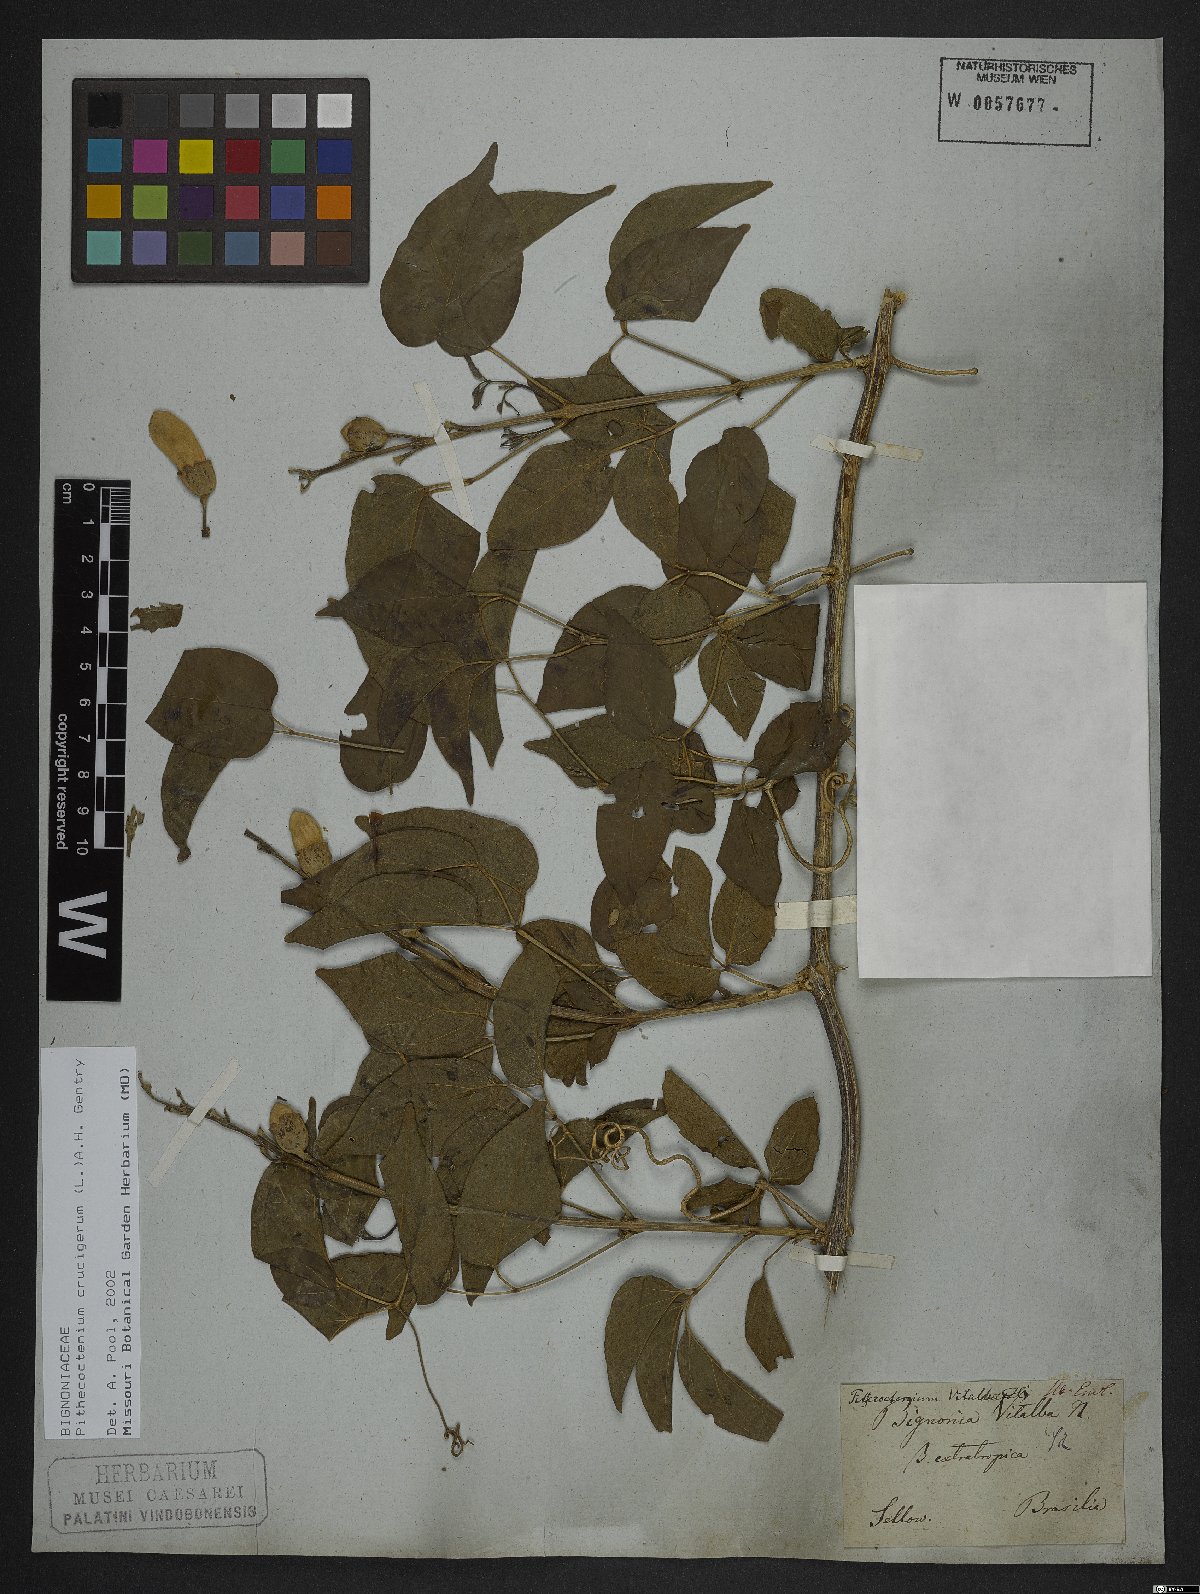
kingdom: Plantae
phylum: Tracheophyta
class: Magnoliopsida
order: Lamiales
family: Bignoniaceae
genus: Amphilophium
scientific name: Amphilophium crucigerum
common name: Monkey comb
